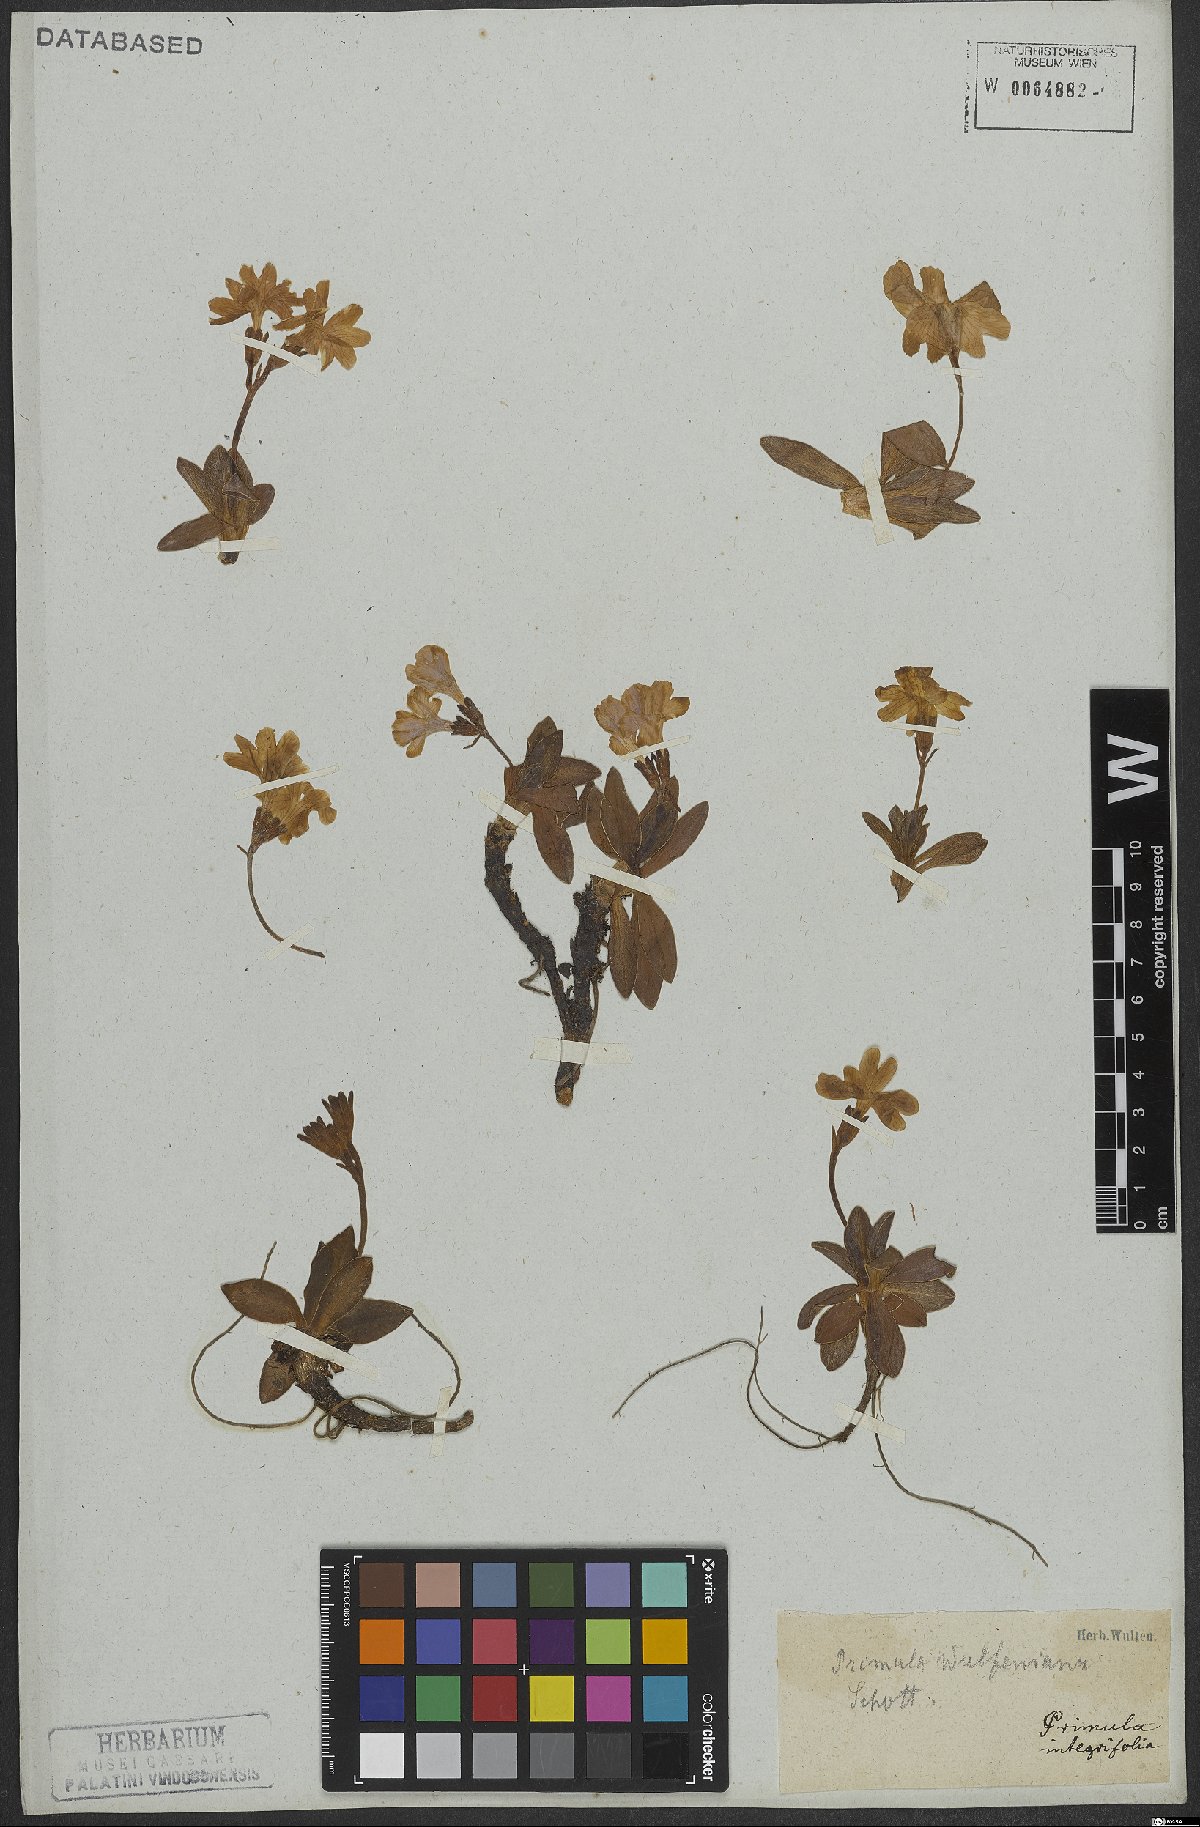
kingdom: Plantae
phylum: Tracheophyta
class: Magnoliopsida
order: Ericales
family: Primulaceae
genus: Primula
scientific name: Primula wulfeniana
